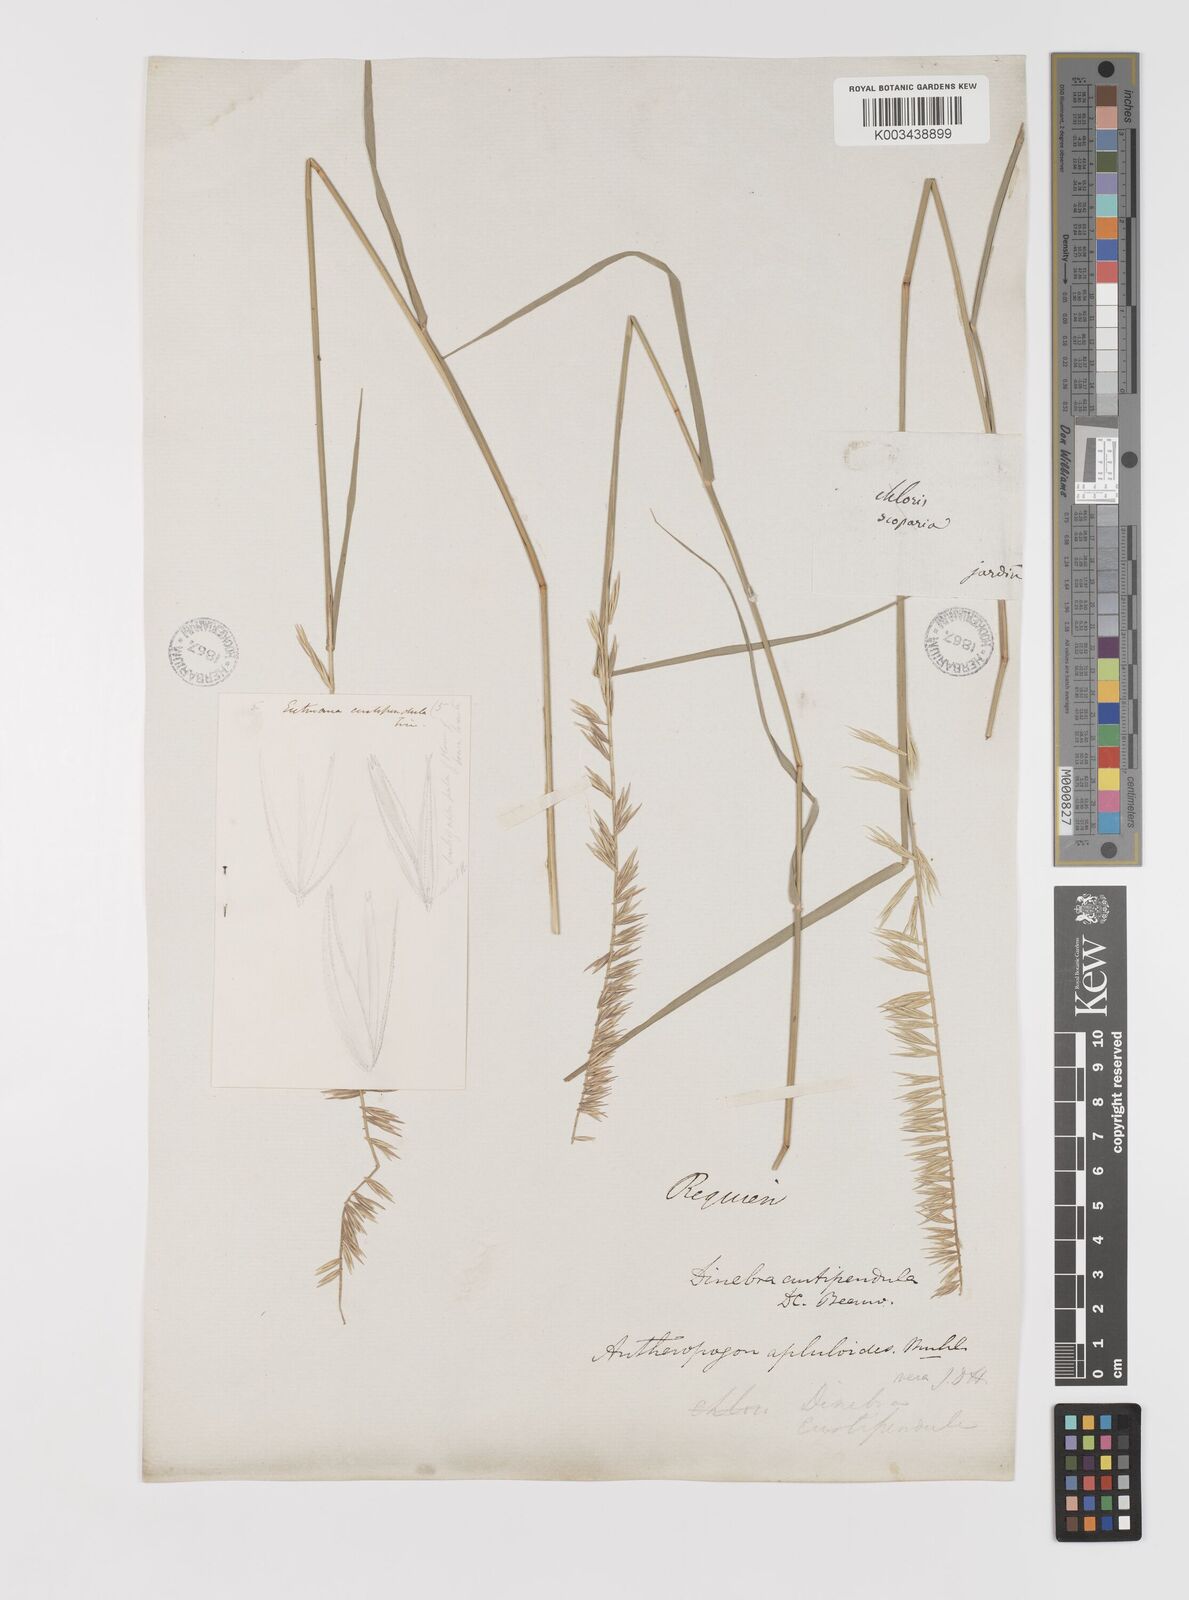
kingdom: Plantae
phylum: Tracheophyta
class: Liliopsida
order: Poales
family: Poaceae
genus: Bouteloua
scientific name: Bouteloua curtipendula
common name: Side-oats grama
